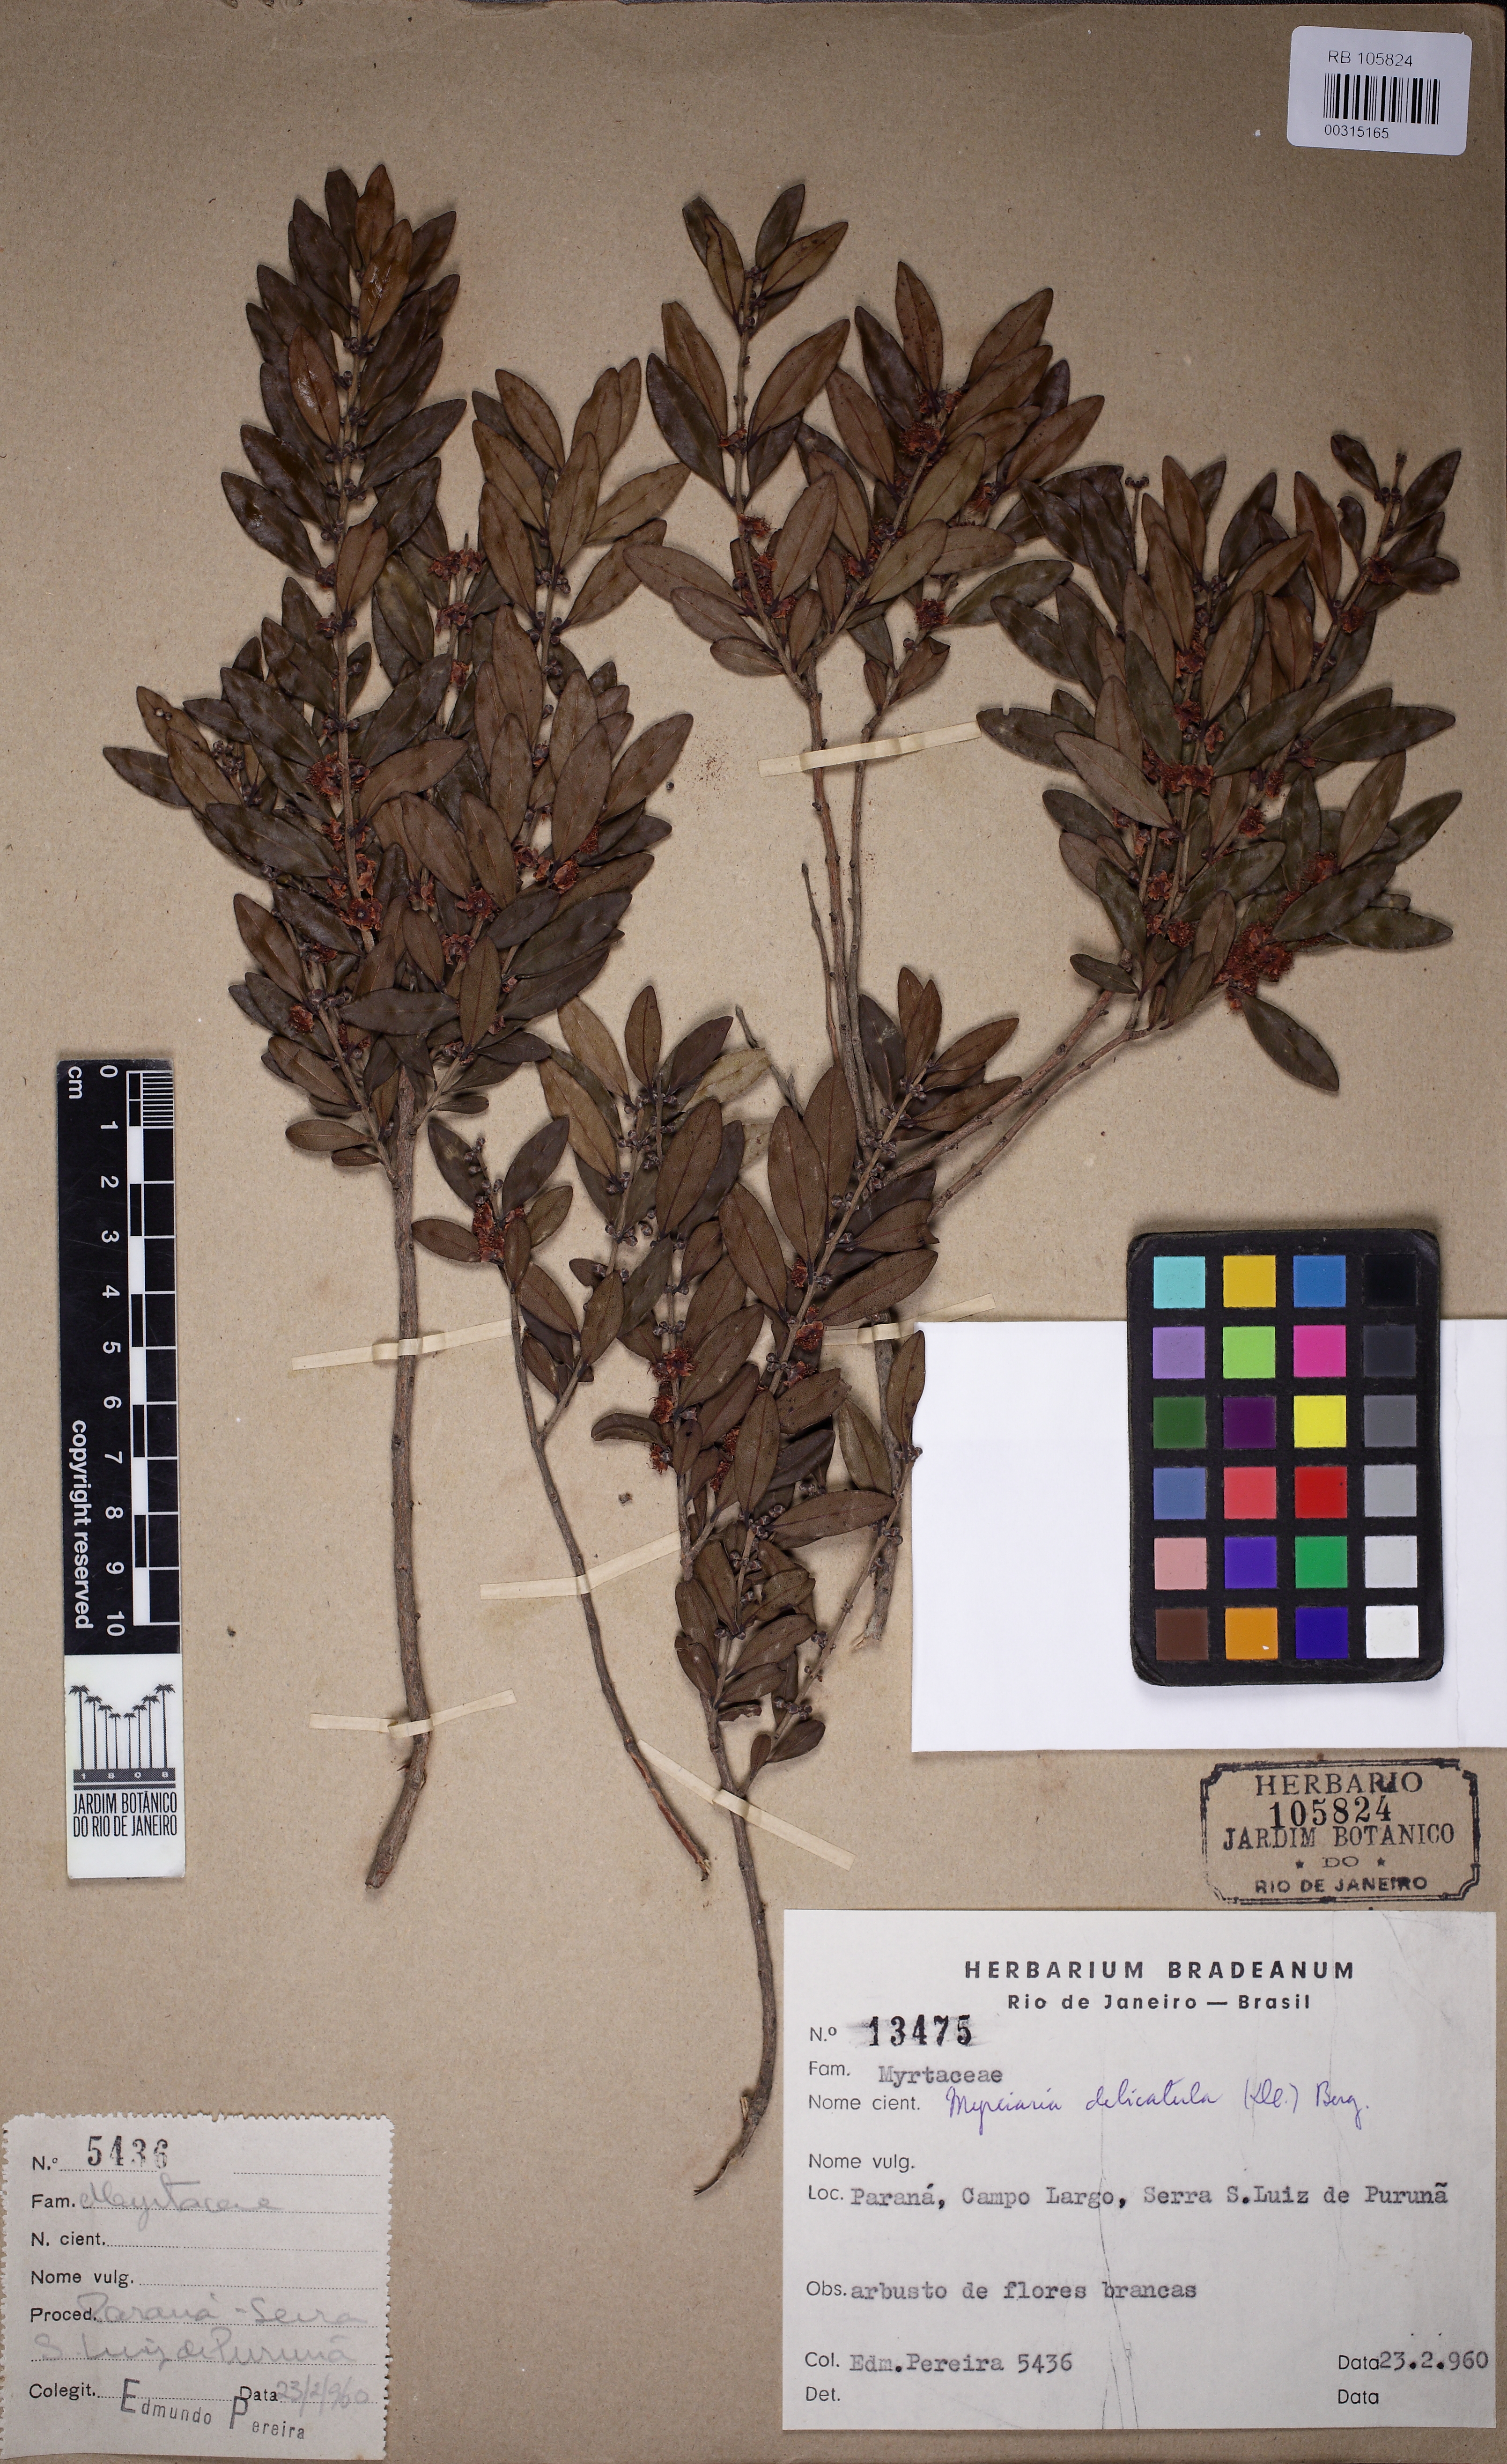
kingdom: Plantae
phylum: Tracheophyta
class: Magnoliopsida
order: Myrtales
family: Myrtaceae
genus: Myrciaria
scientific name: Myrciaria delicatula
